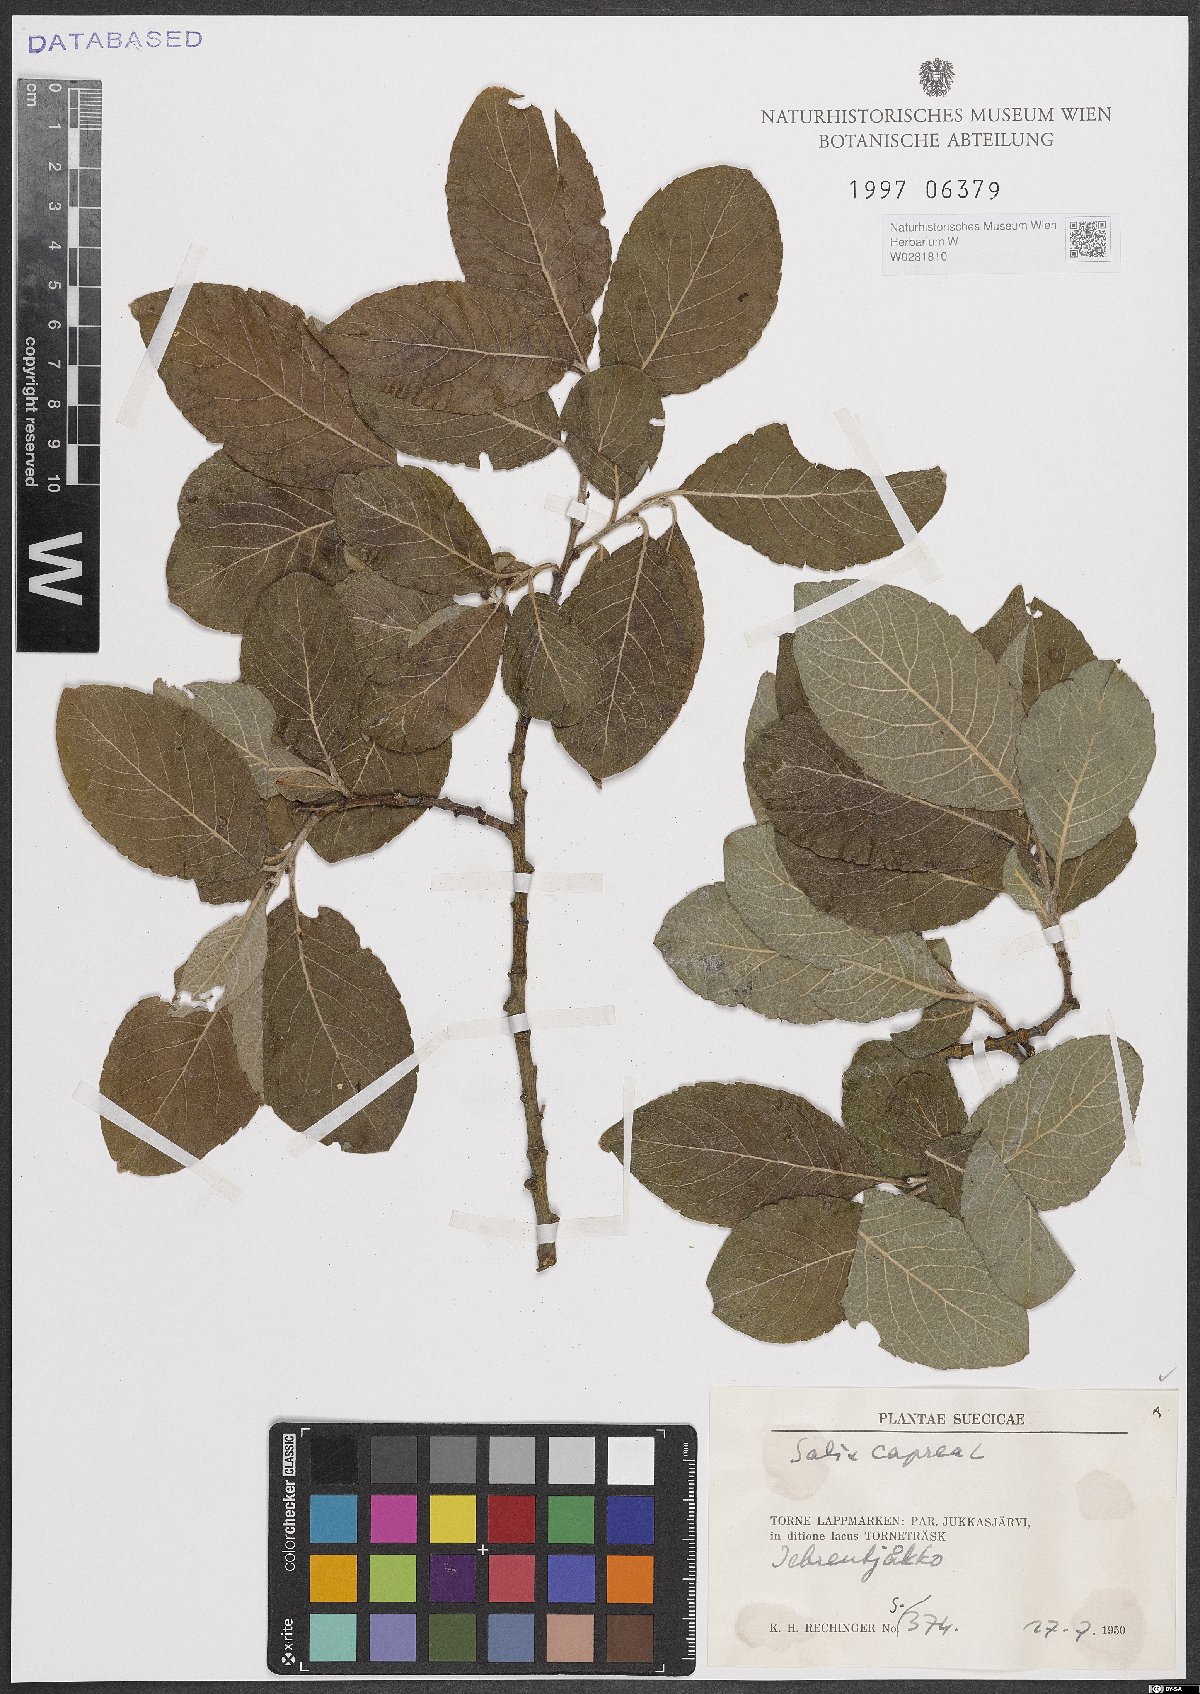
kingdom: Plantae
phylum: Tracheophyta
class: Magnoliopsida
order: Malpighiales
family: Salicaceae
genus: Salix
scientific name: Salix caprea
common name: Goat willow
